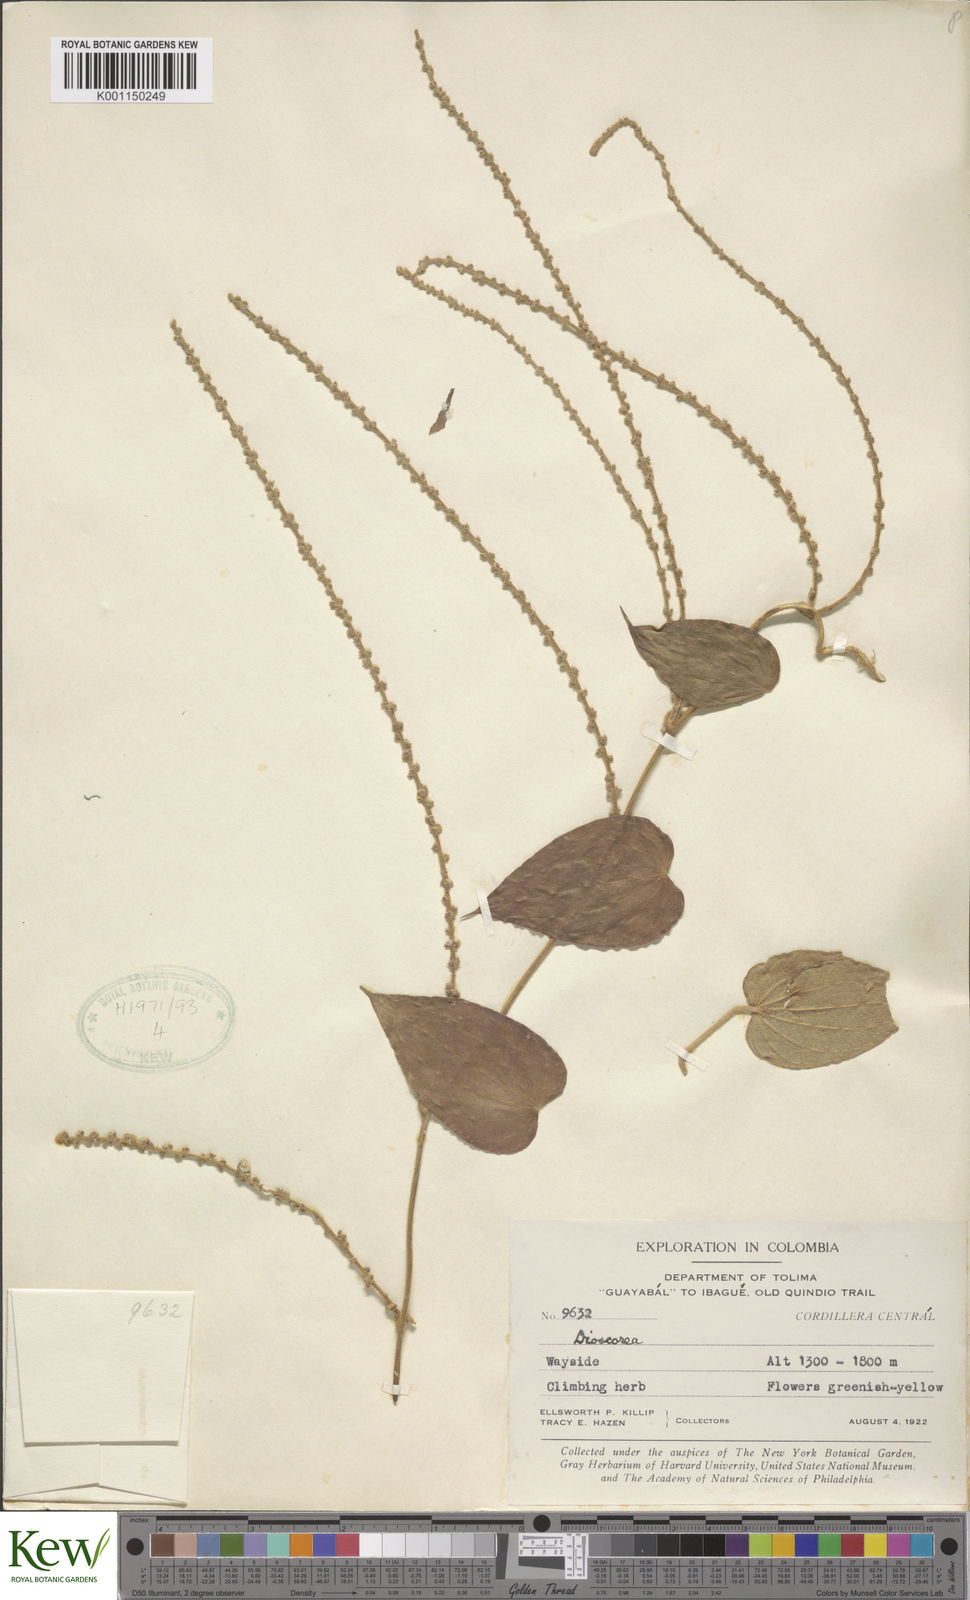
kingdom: Plantae
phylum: Tracheophyta
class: Liliopsida
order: Dioscoreales
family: Dioscoreaceae
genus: Dioscorea
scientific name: Dioscorea biplicata
